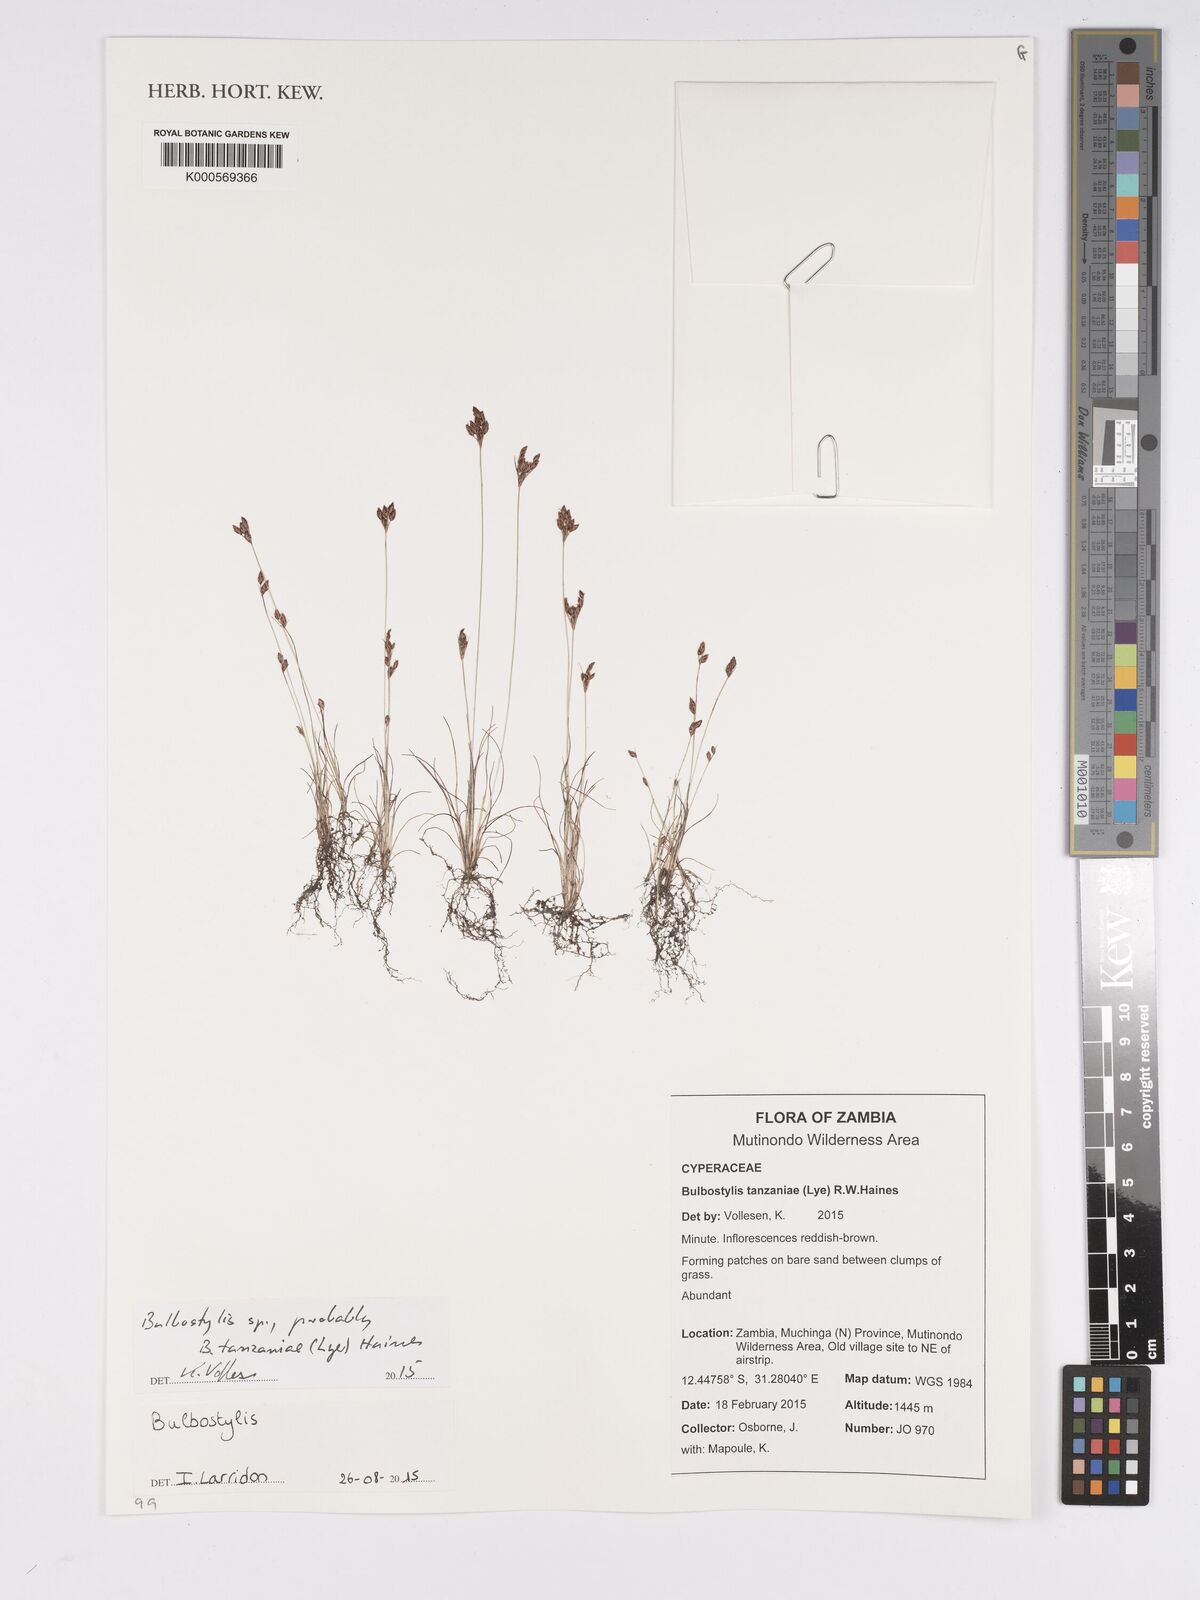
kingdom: Plantae
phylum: Tracheophyta
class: Liliopsida
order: Poales
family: Cyperaceae
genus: Bulbostylis
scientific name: Bulbostylis
